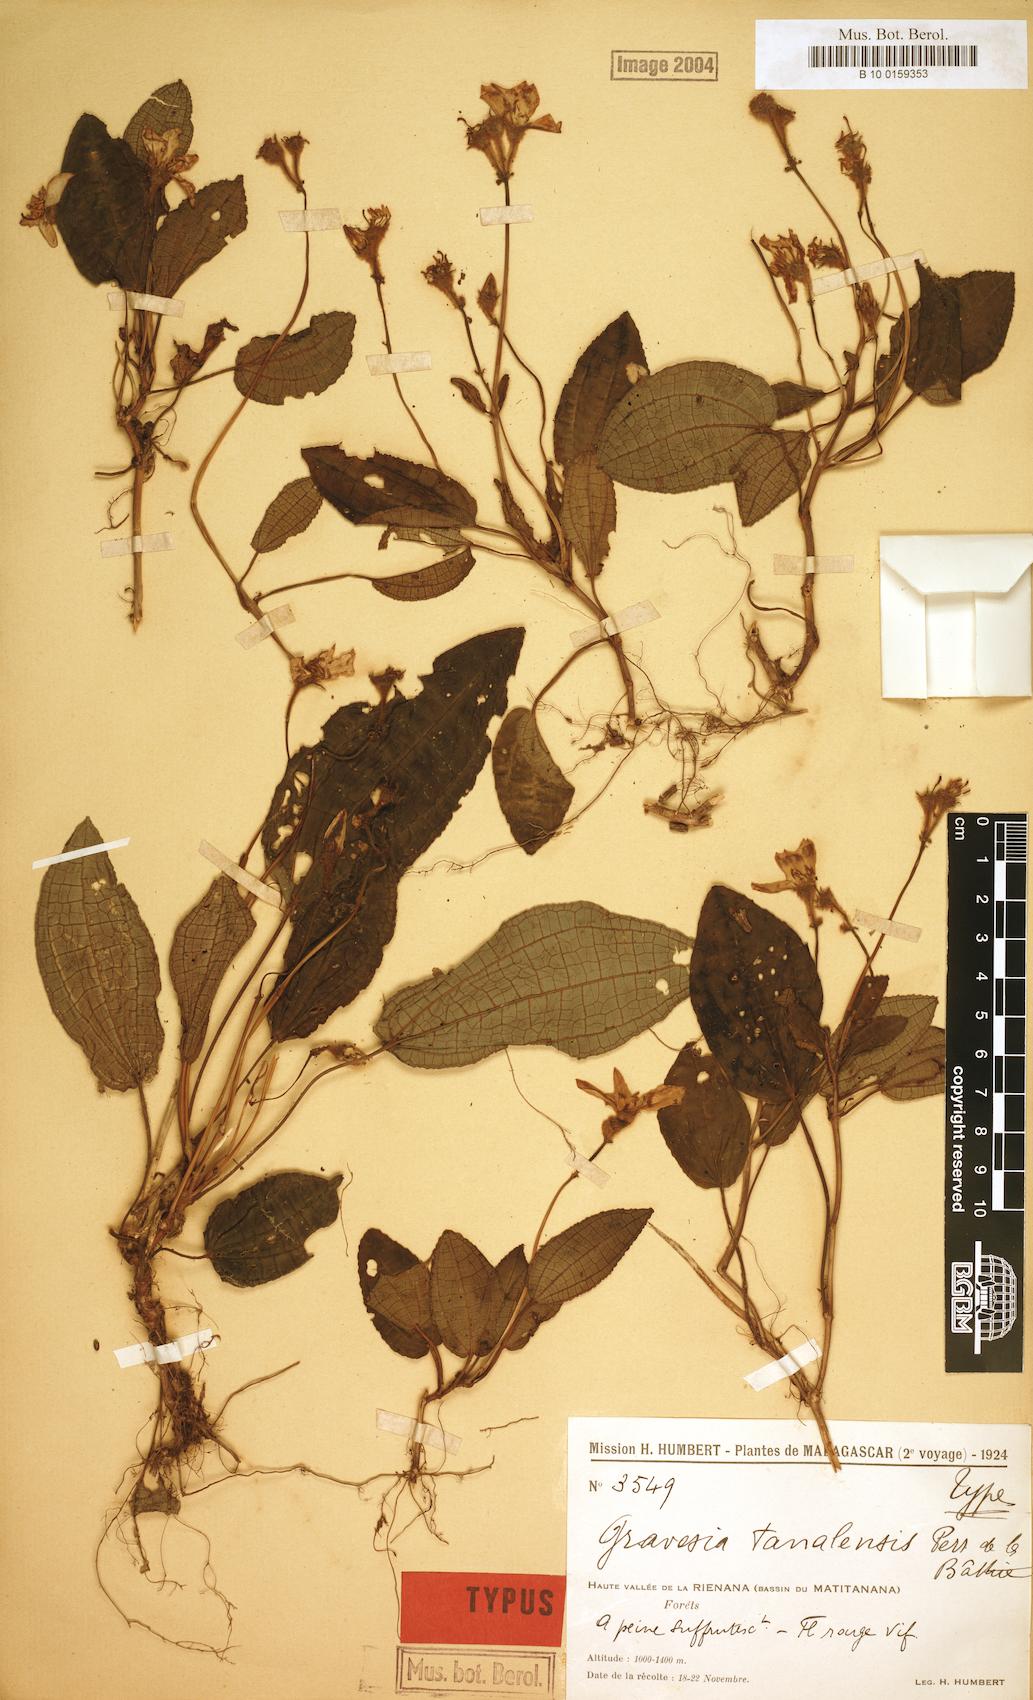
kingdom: Plantae
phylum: Tracheophyta
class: Magnoliopsida
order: Myrtales
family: Melastomataceae
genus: Gravesia
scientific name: Gravesia tanalensis
